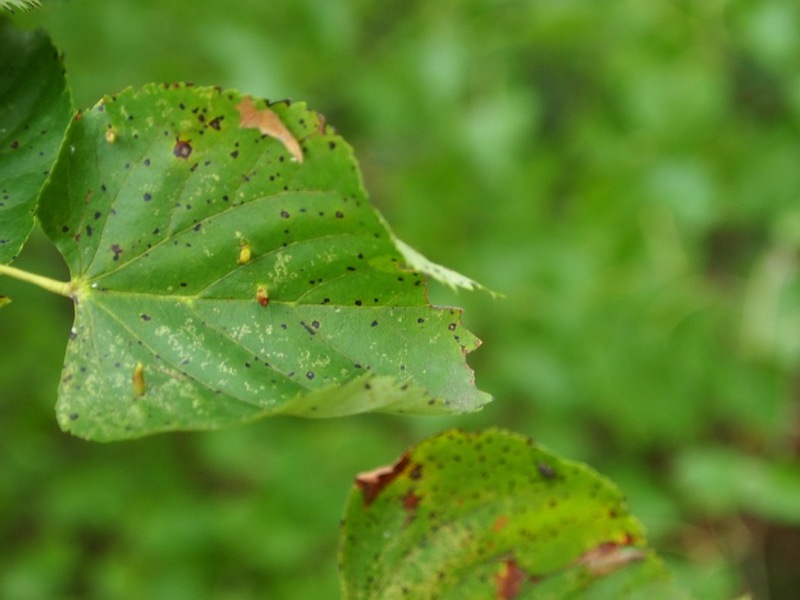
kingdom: Animalia
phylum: Arthropoda
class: Arachnida
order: Trombidiformes
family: Eriophyidae
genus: Eriophyes
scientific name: Eriophyes lateannulatus
